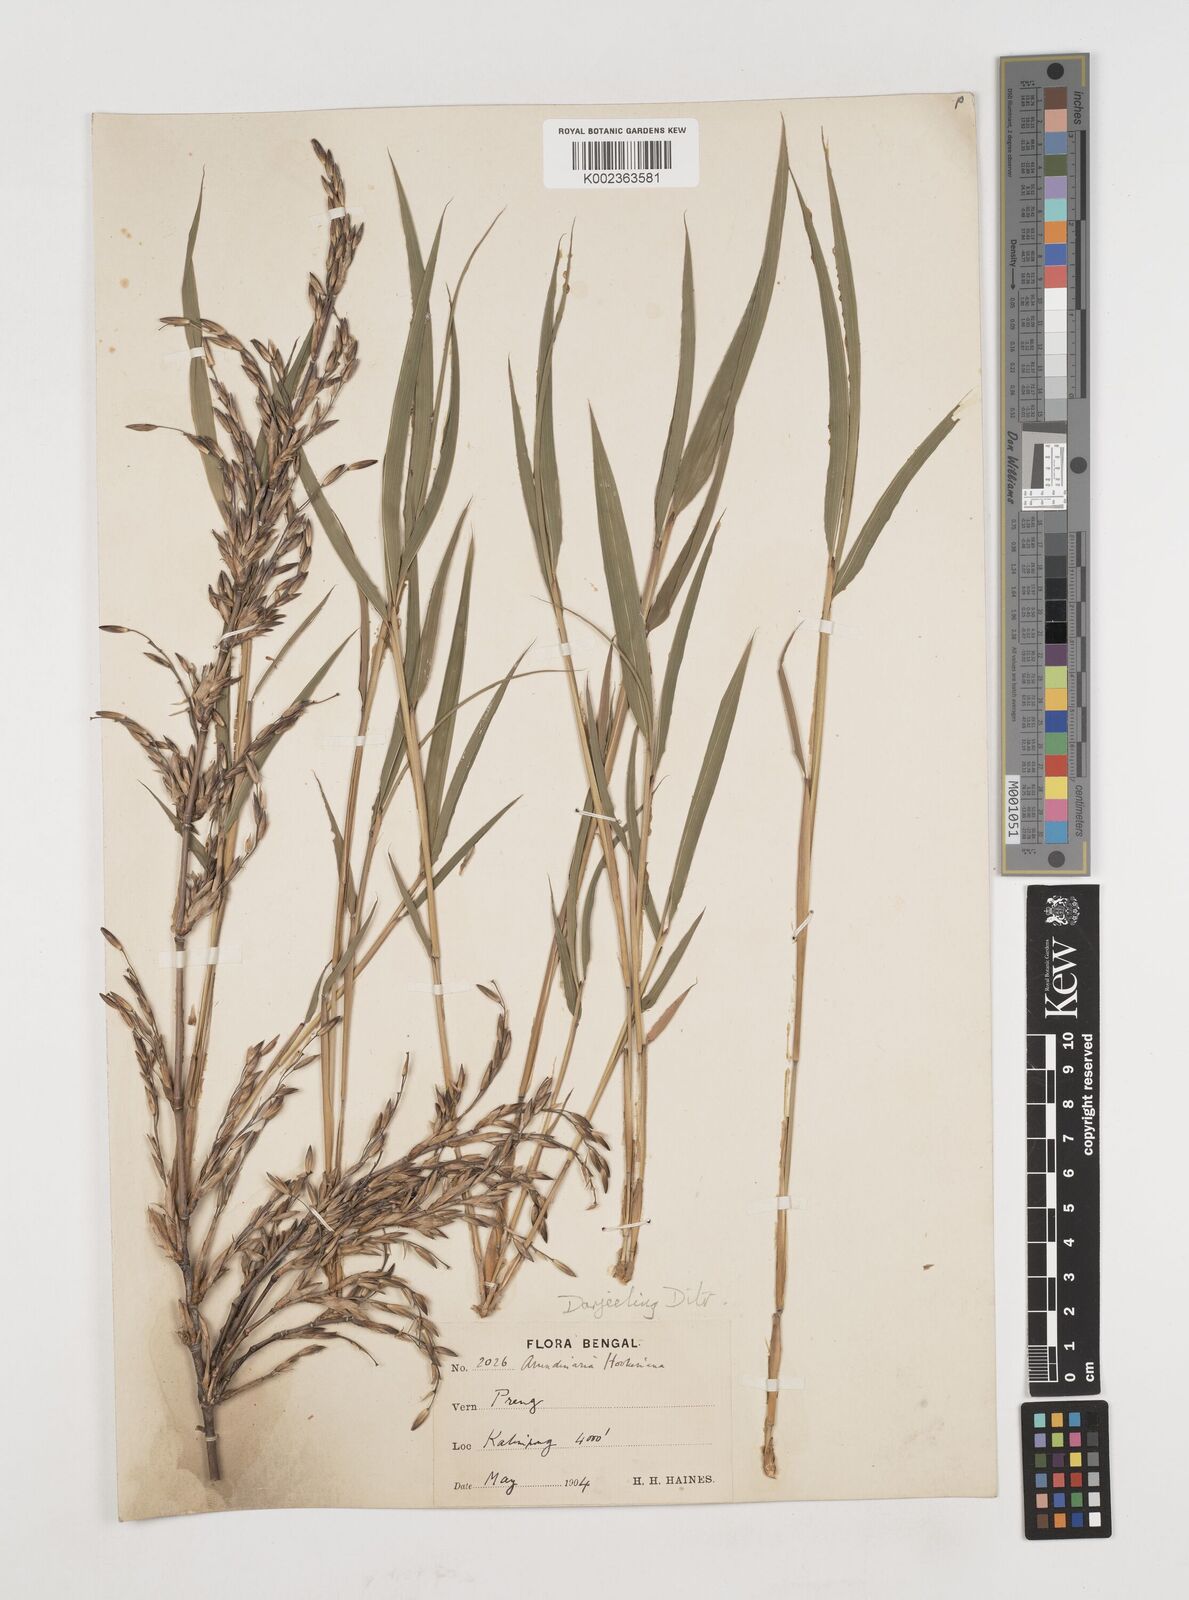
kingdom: Plantae
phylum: Tracheophyta
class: Liliopsida
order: Poales
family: Poaceae
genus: Himalayacalamus
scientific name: Himalayacalamus hookerianus
